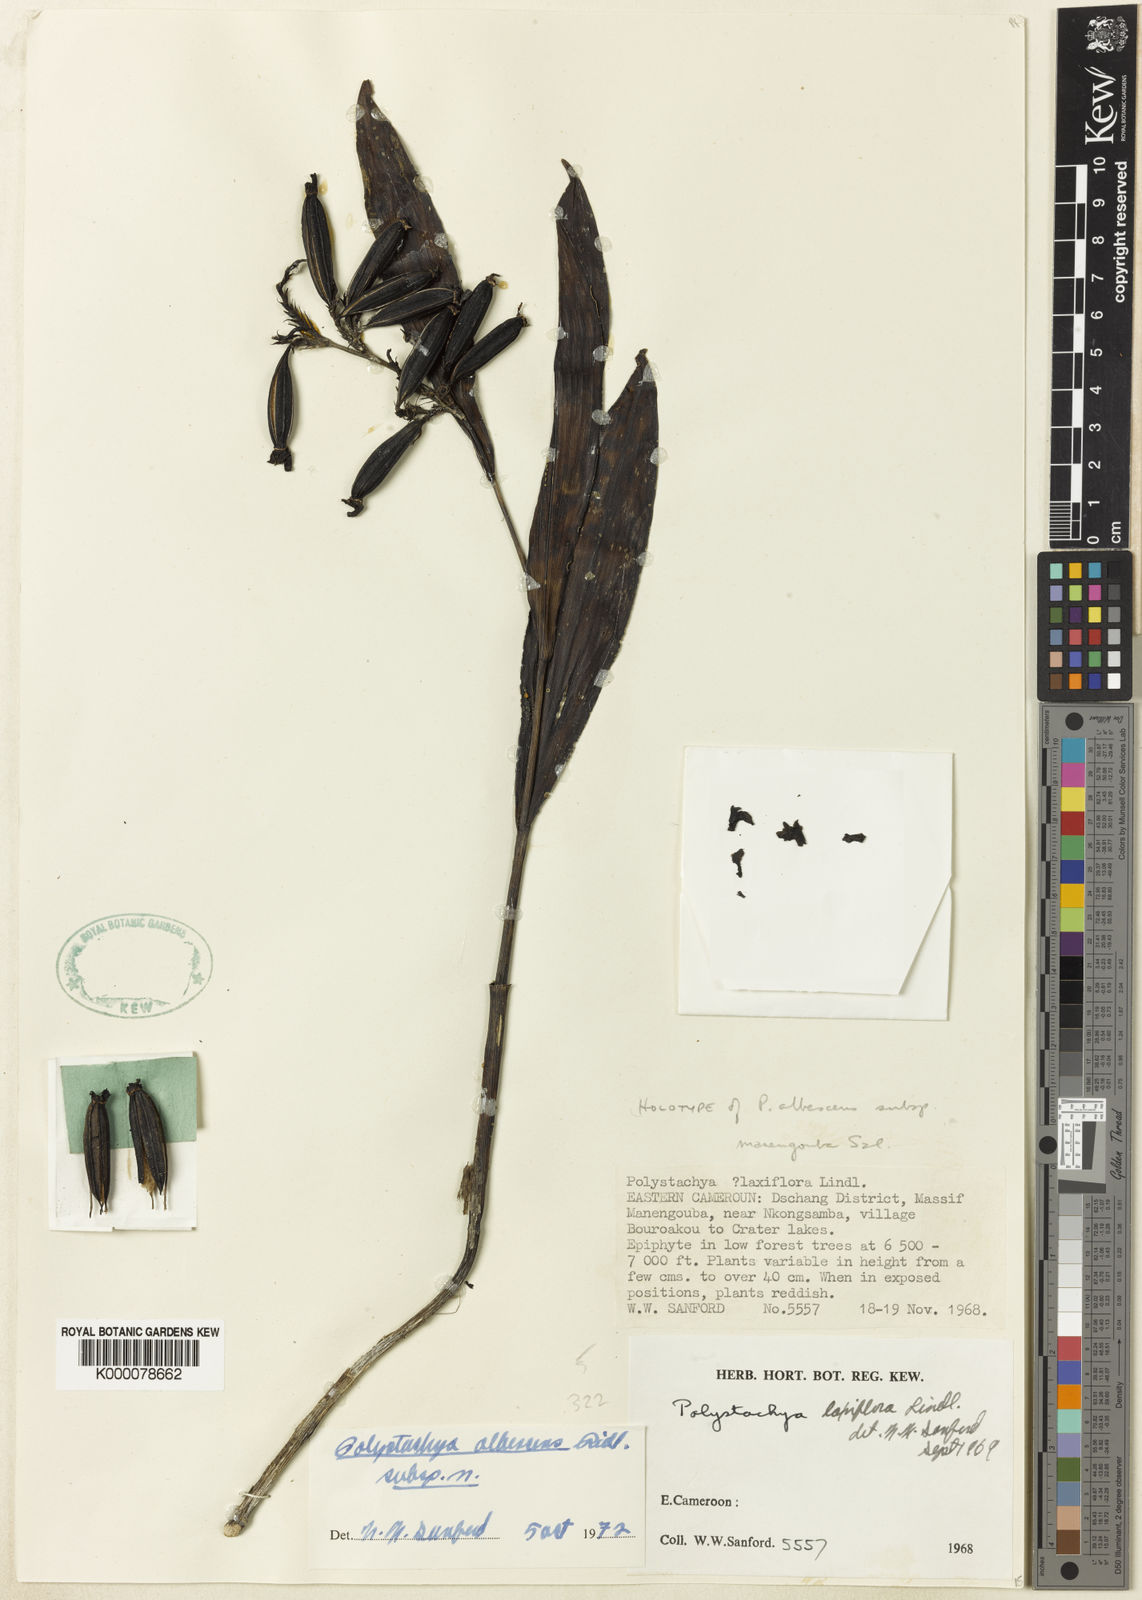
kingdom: Plantae
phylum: Tracheophyta
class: Liliopsida
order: Asparagales
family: Orchidaceae
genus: Polystachya
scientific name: Polystachya albescens
